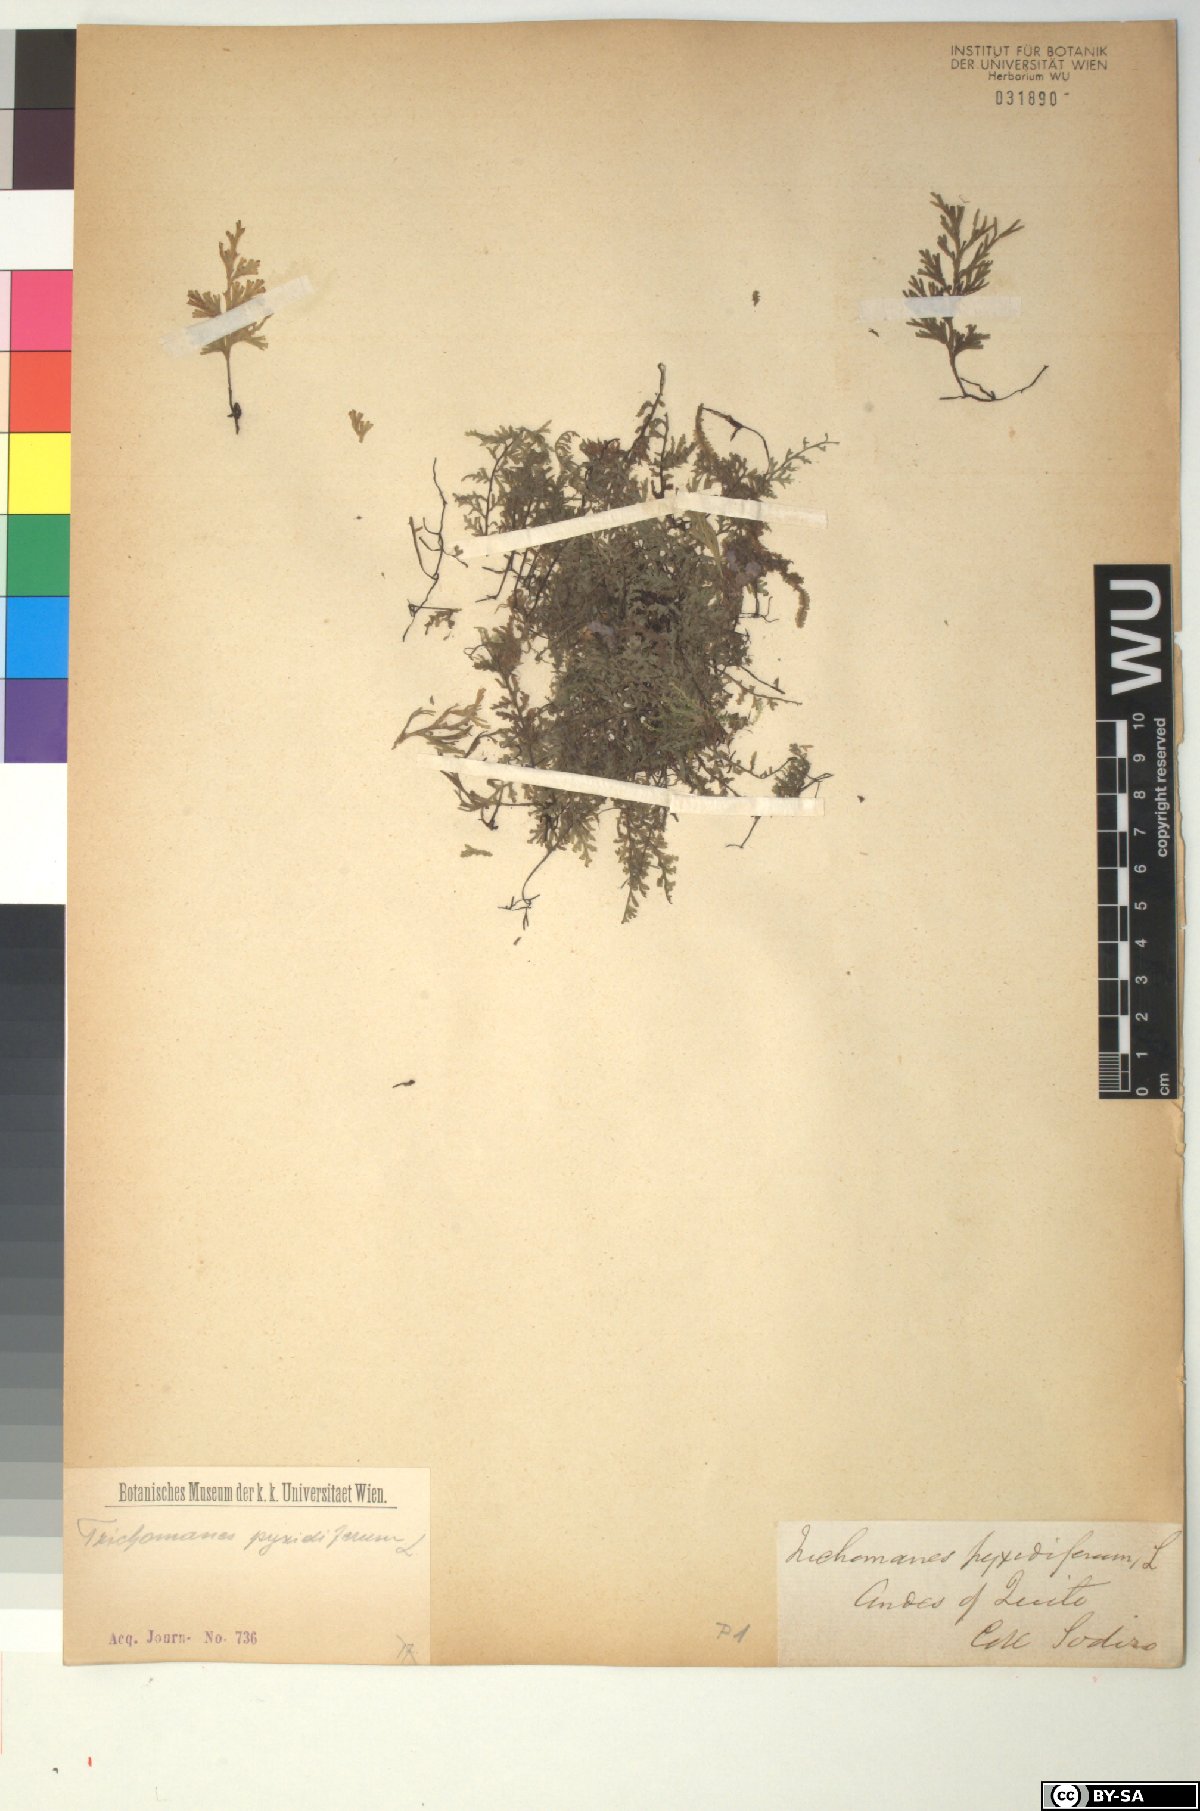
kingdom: Plantae
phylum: Tracheophyta
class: Polypodiopsida
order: Hymenophyllales
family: Hymenophyllaceae
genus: Polyphlebium
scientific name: Polyphlebium pyxidiferum
